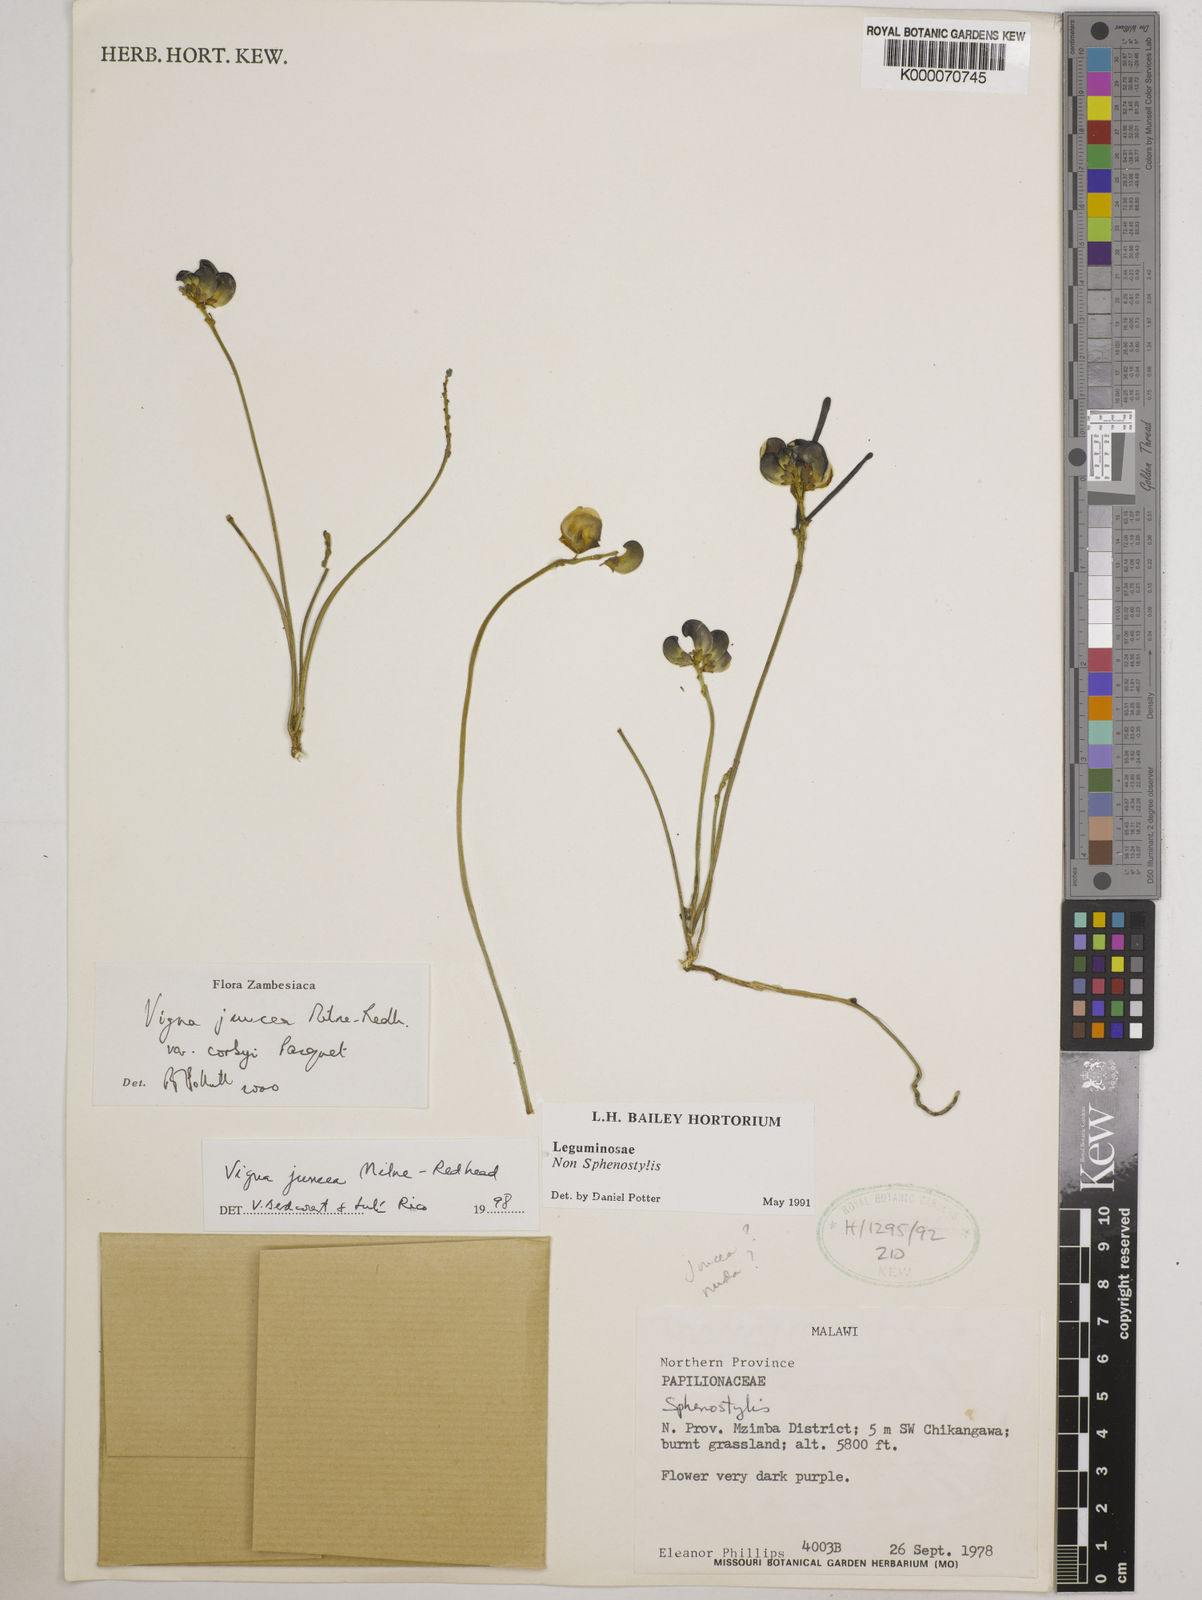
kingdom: Plantae
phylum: Tracheophyta
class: Magnoliopsida
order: Fabales
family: Fabaceae
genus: Vigna
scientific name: Vigna juncea
